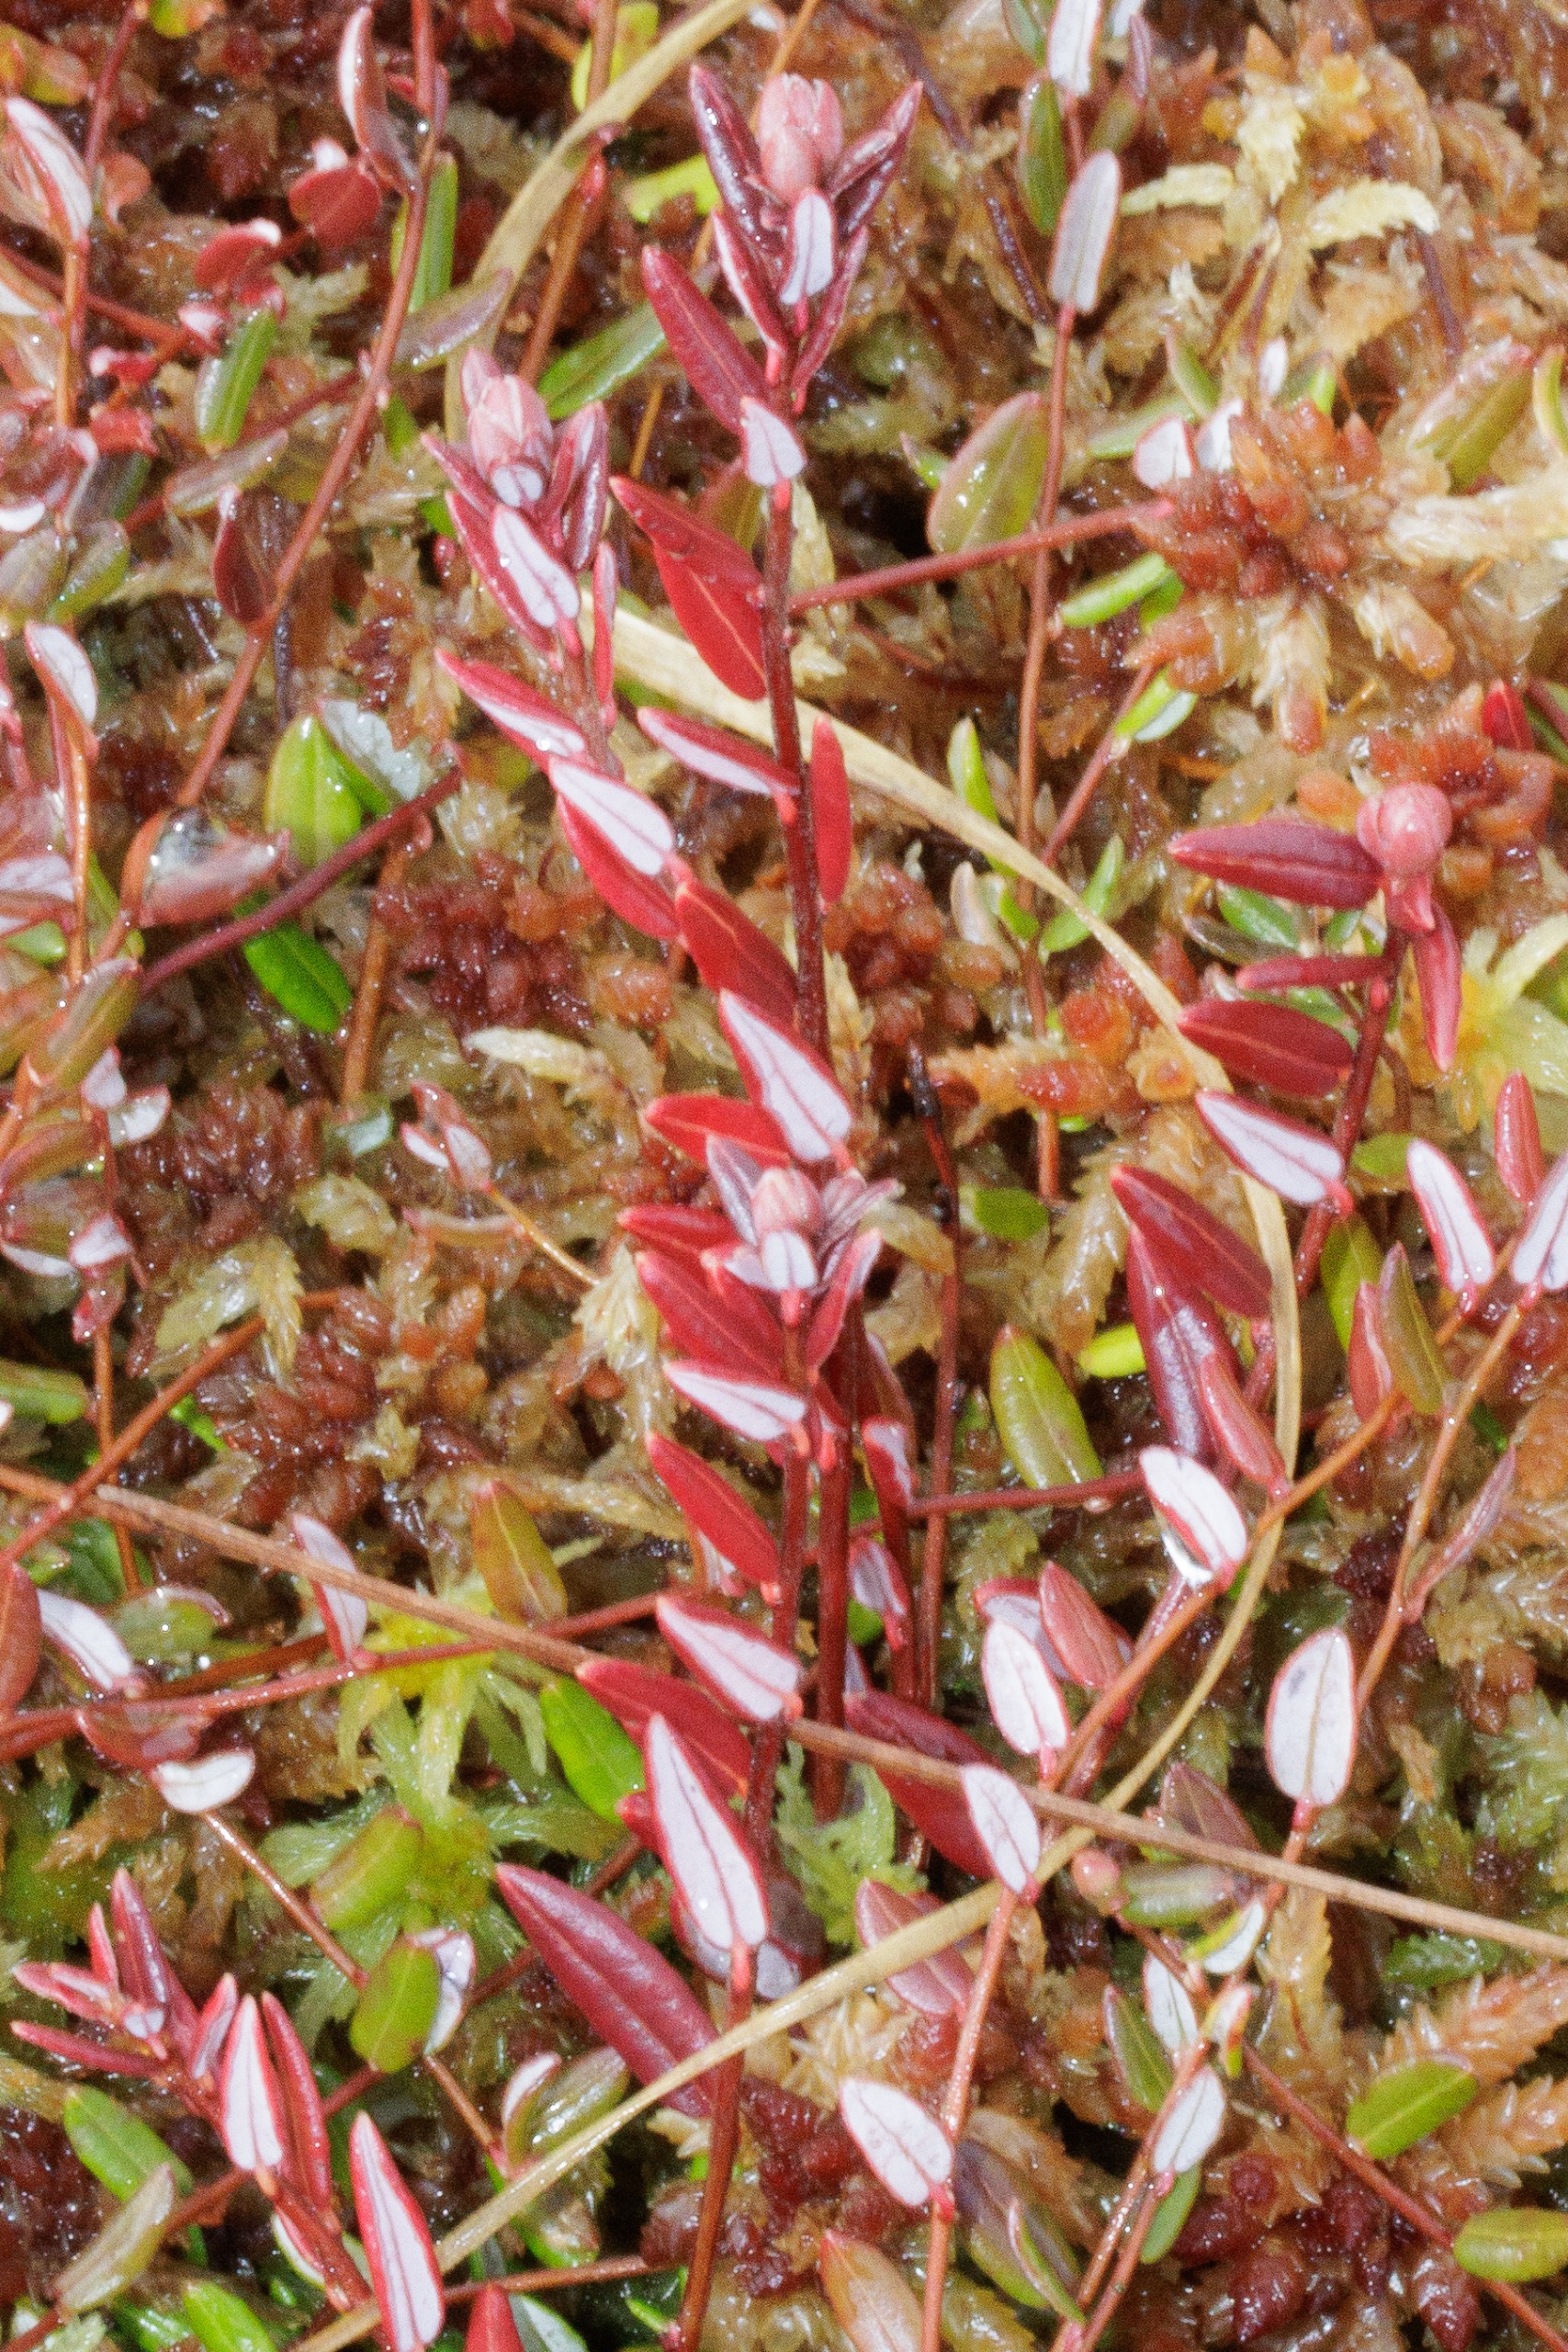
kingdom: Plantae
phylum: Tracheophyta
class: Magnoliopsida
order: Ericales
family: Ericaceae
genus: Vaccinium
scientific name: Vaccinium oxycoccos
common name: Tranebær
